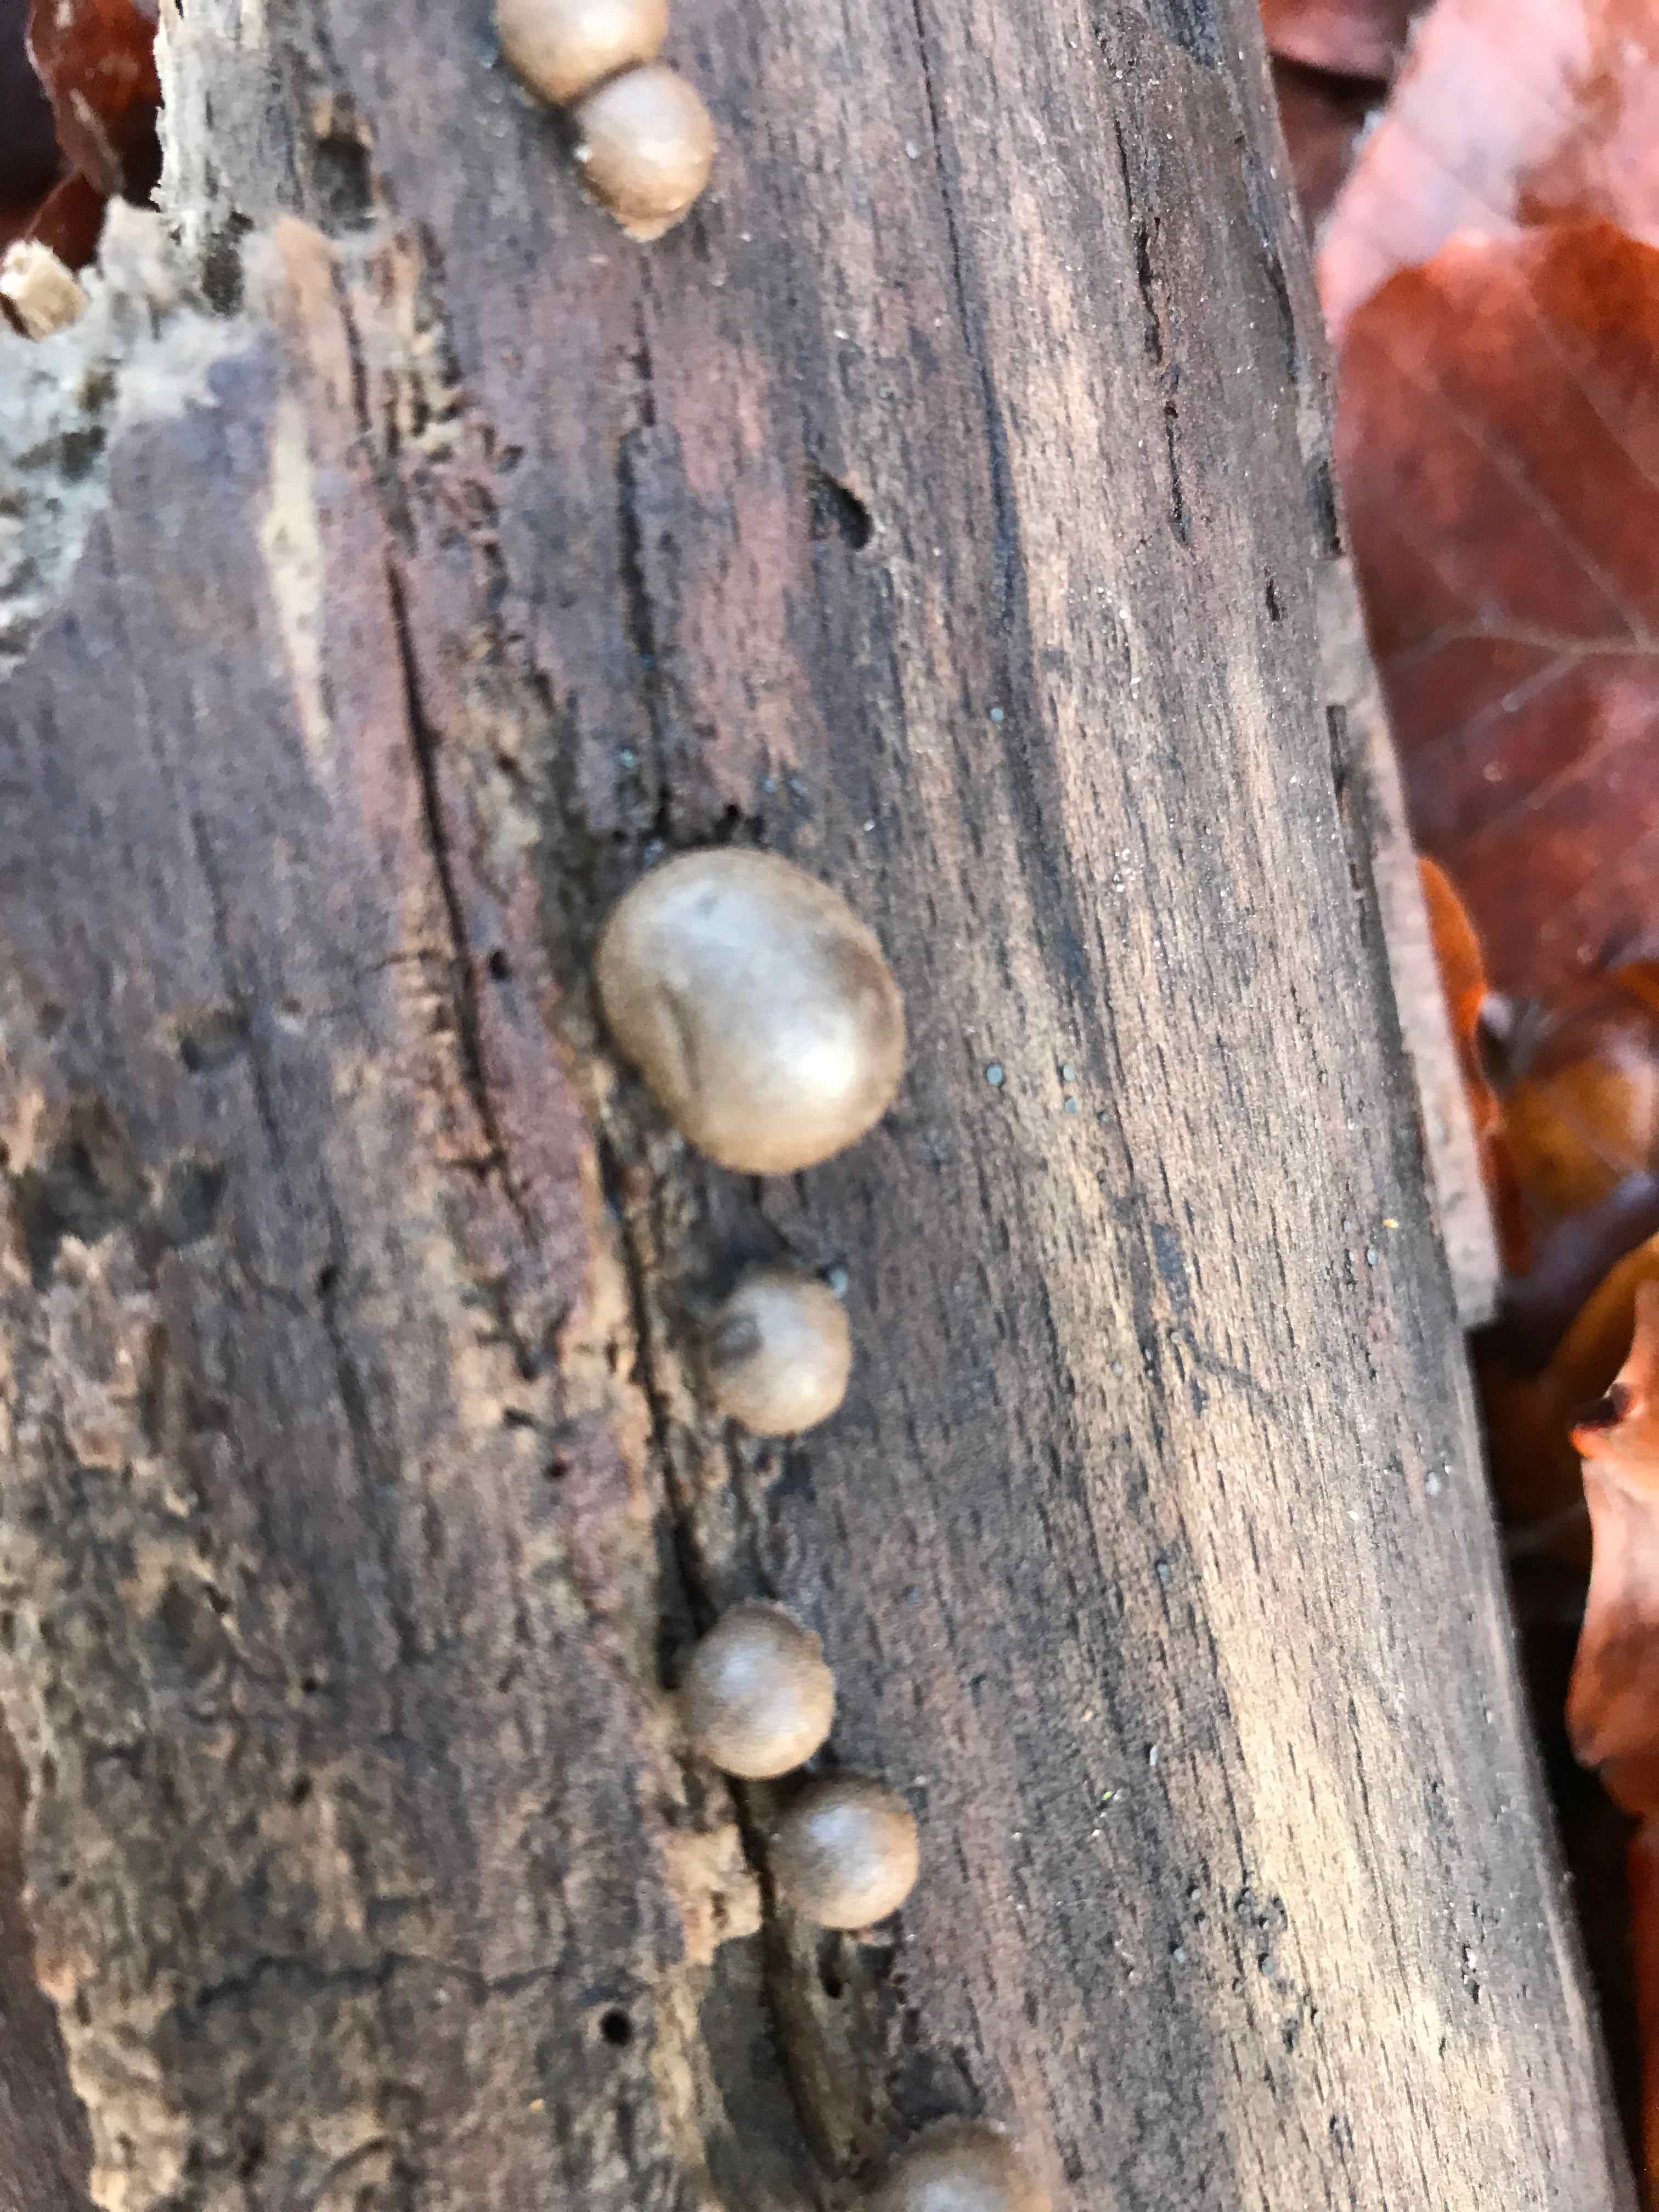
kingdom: Protozoa
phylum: Mycetozoa
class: Myxomycetes
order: Cribrariales
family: Tubiferaceae
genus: Lycogala
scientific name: Lycogala epidendrum
